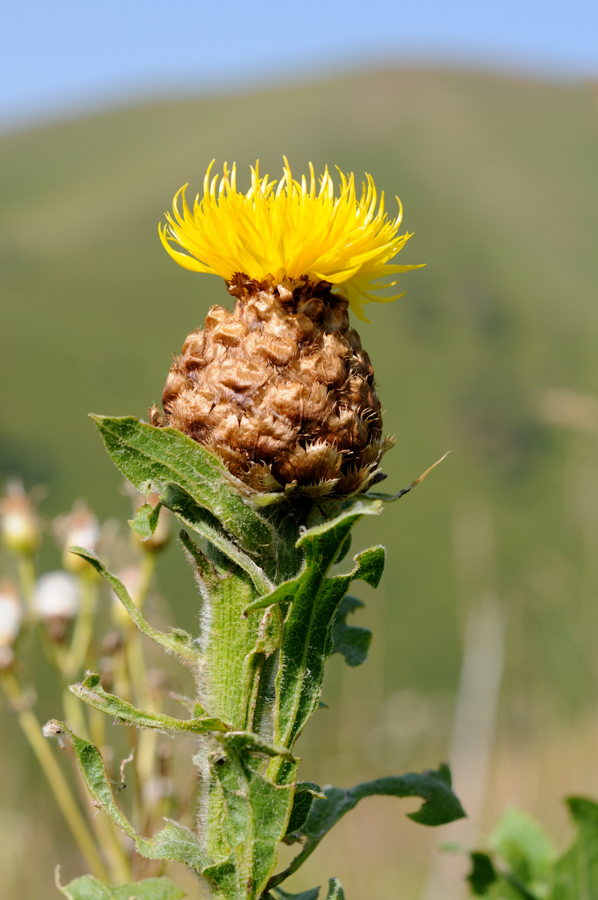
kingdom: Plantae
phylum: Tracheophyta
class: Magnoliopsida
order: Asterales
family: Asteraceae
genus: Centaurea
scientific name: Centaurea macrocephala
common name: Big-head knapweed
